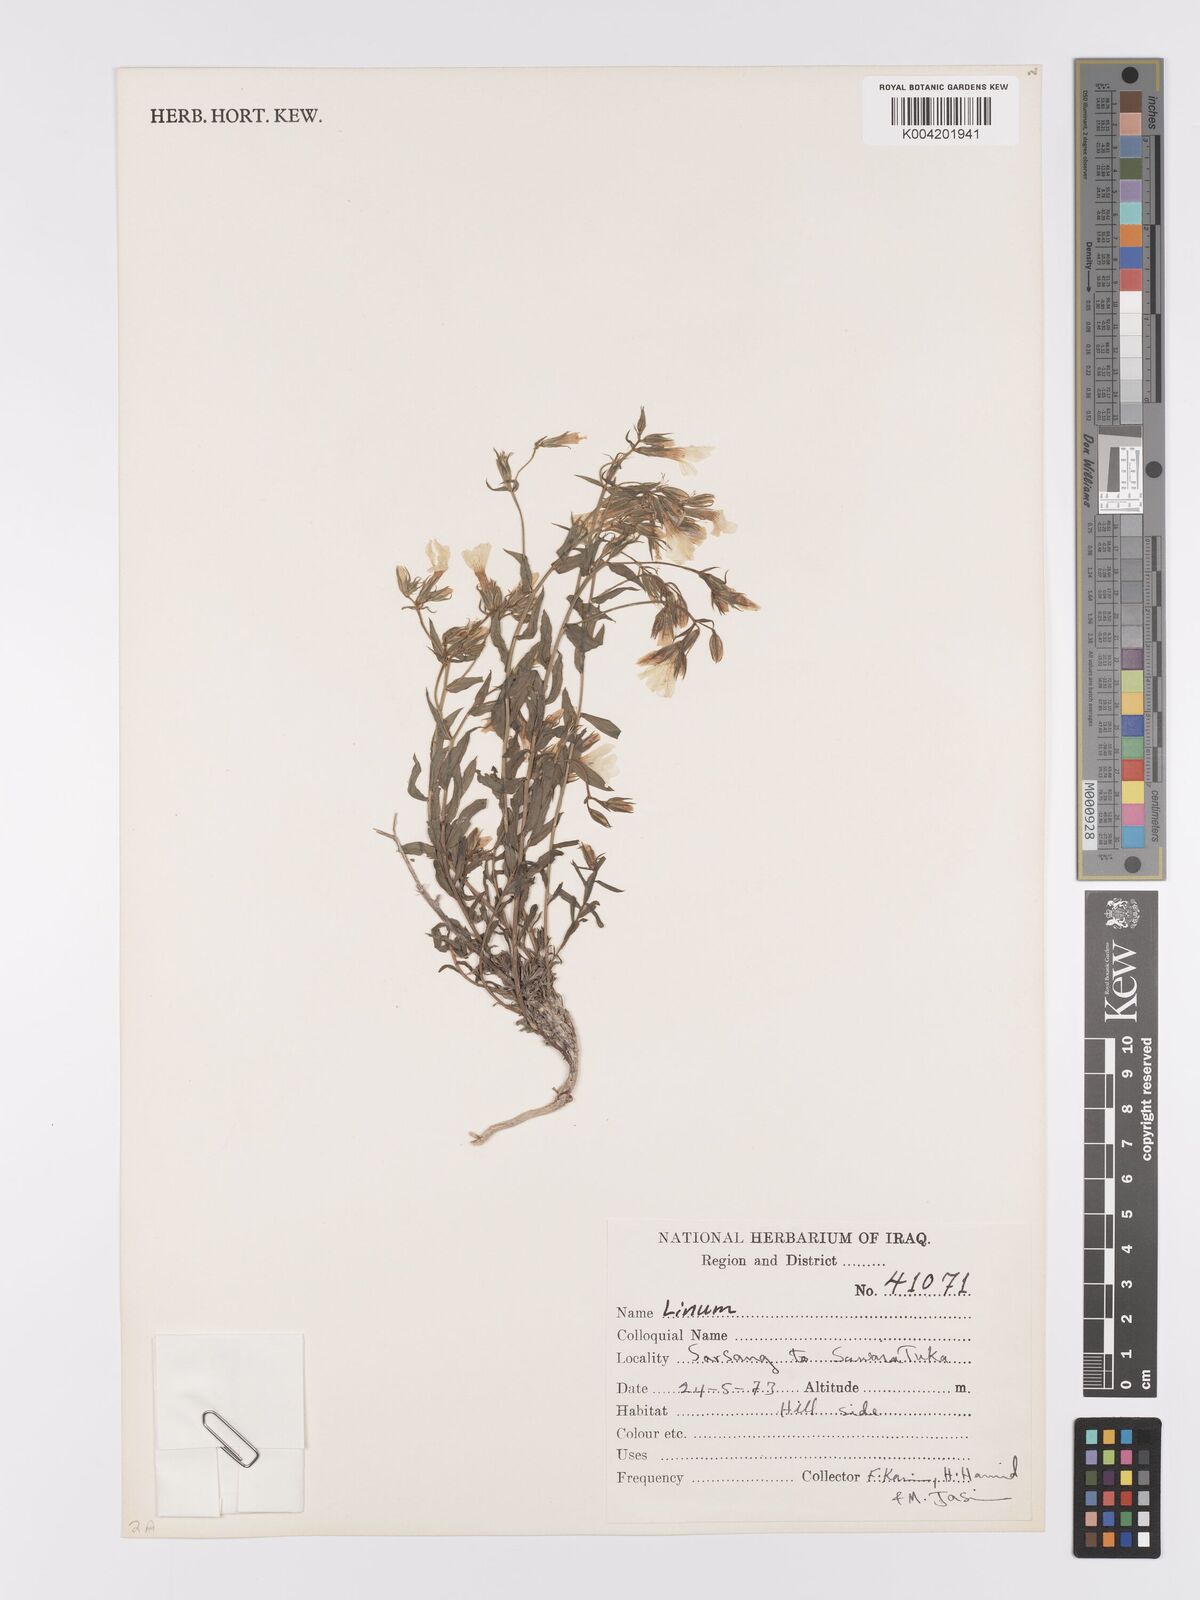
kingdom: Plantae
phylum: Tracheophyta
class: Magnoliopsida
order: Malpighiales
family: Linaceae
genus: Linum
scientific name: Linum
